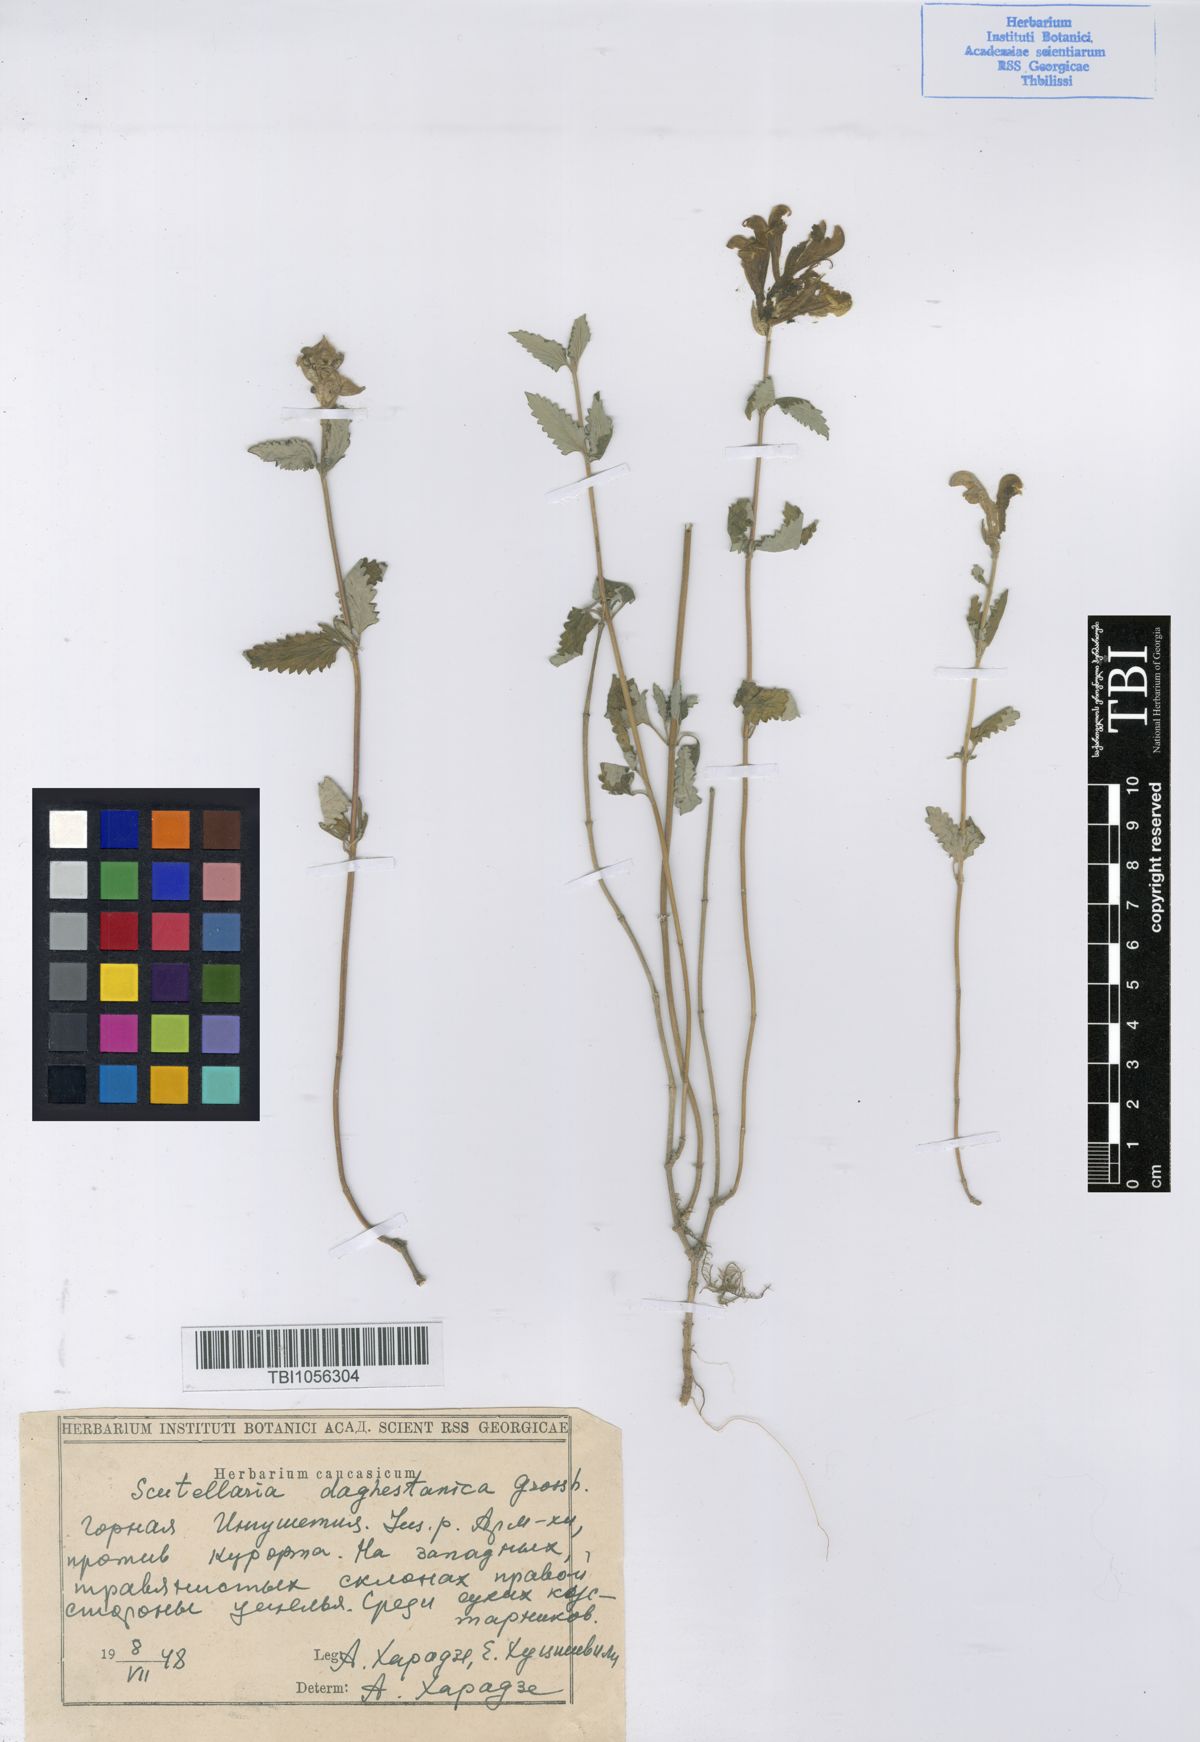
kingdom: Plantae
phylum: Tracheophyta
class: Magnoliopsida
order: Lamiales
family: Lamiaceae
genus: Scutellaria
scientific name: Scutellaria daghestanica
